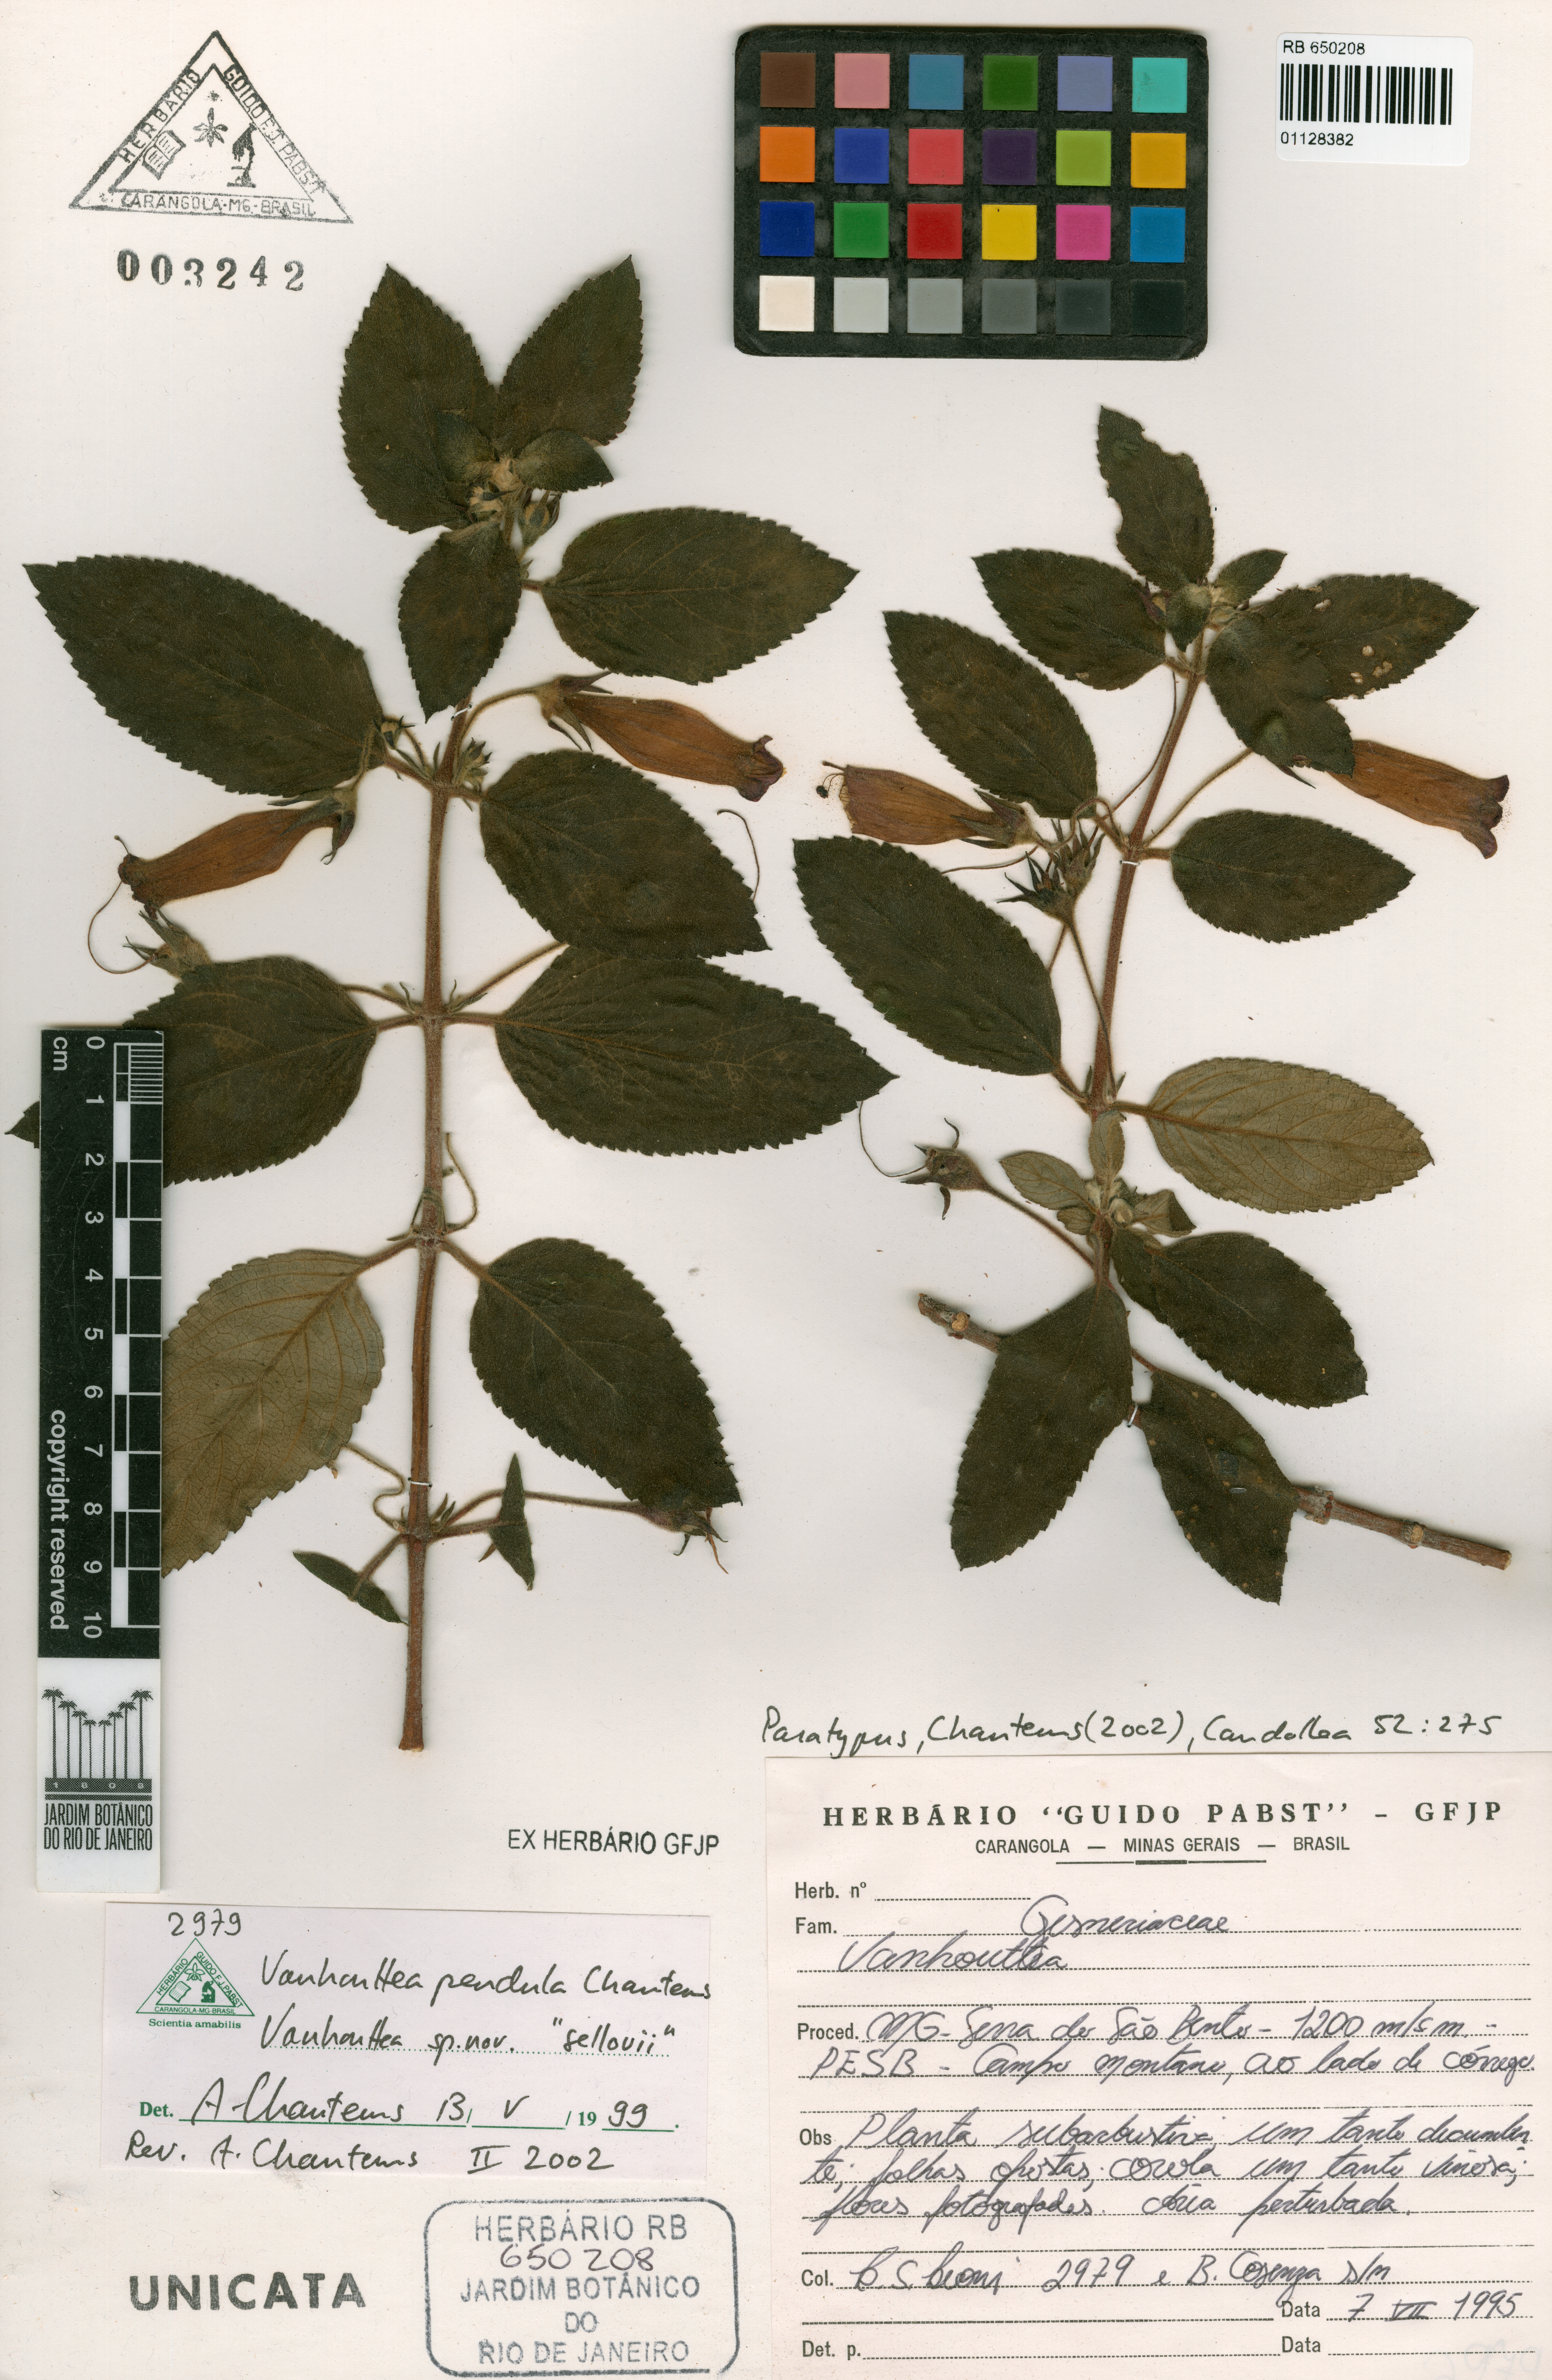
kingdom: Plantae
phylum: Tracheophyta
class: Magnoliopsida
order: Lamiales
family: Gesneriaceae
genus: Vanhouttea
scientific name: Vanhouttea pendula
